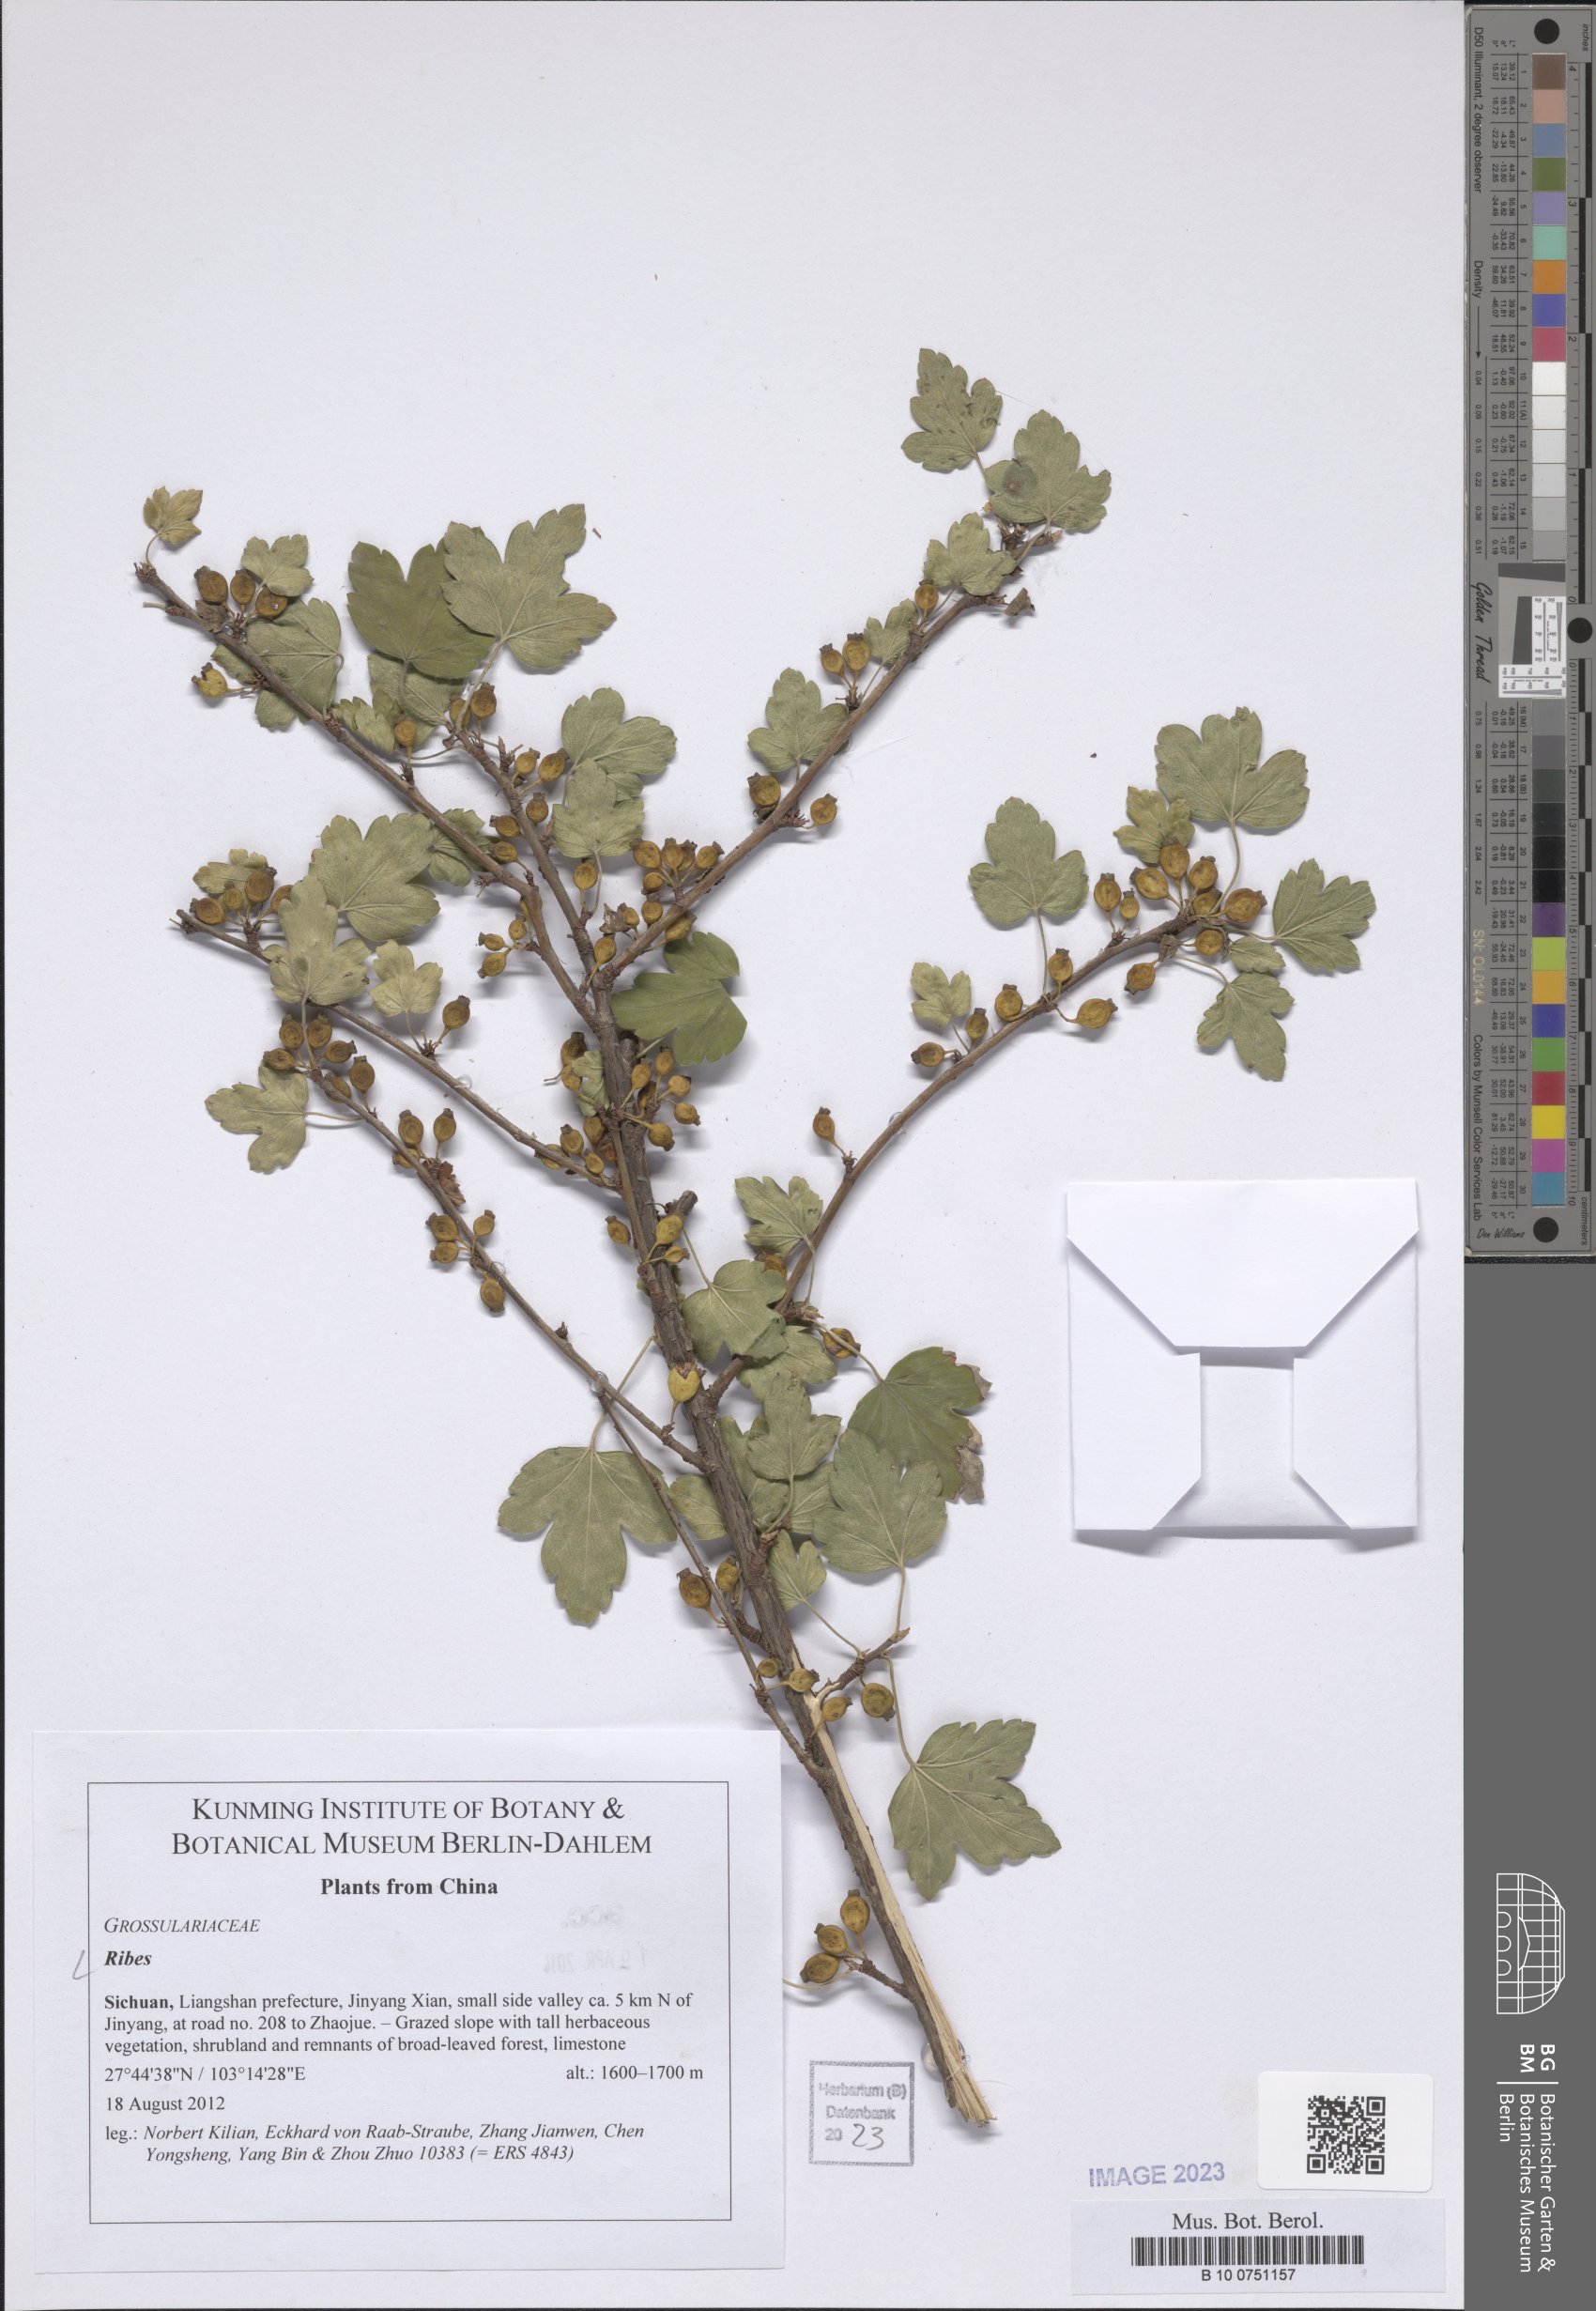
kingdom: Plantae
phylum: Tracheophyta
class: Magnoliopsida
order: Saxifragales
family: Grossulariaceae
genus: Ribes
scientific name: Ribes
